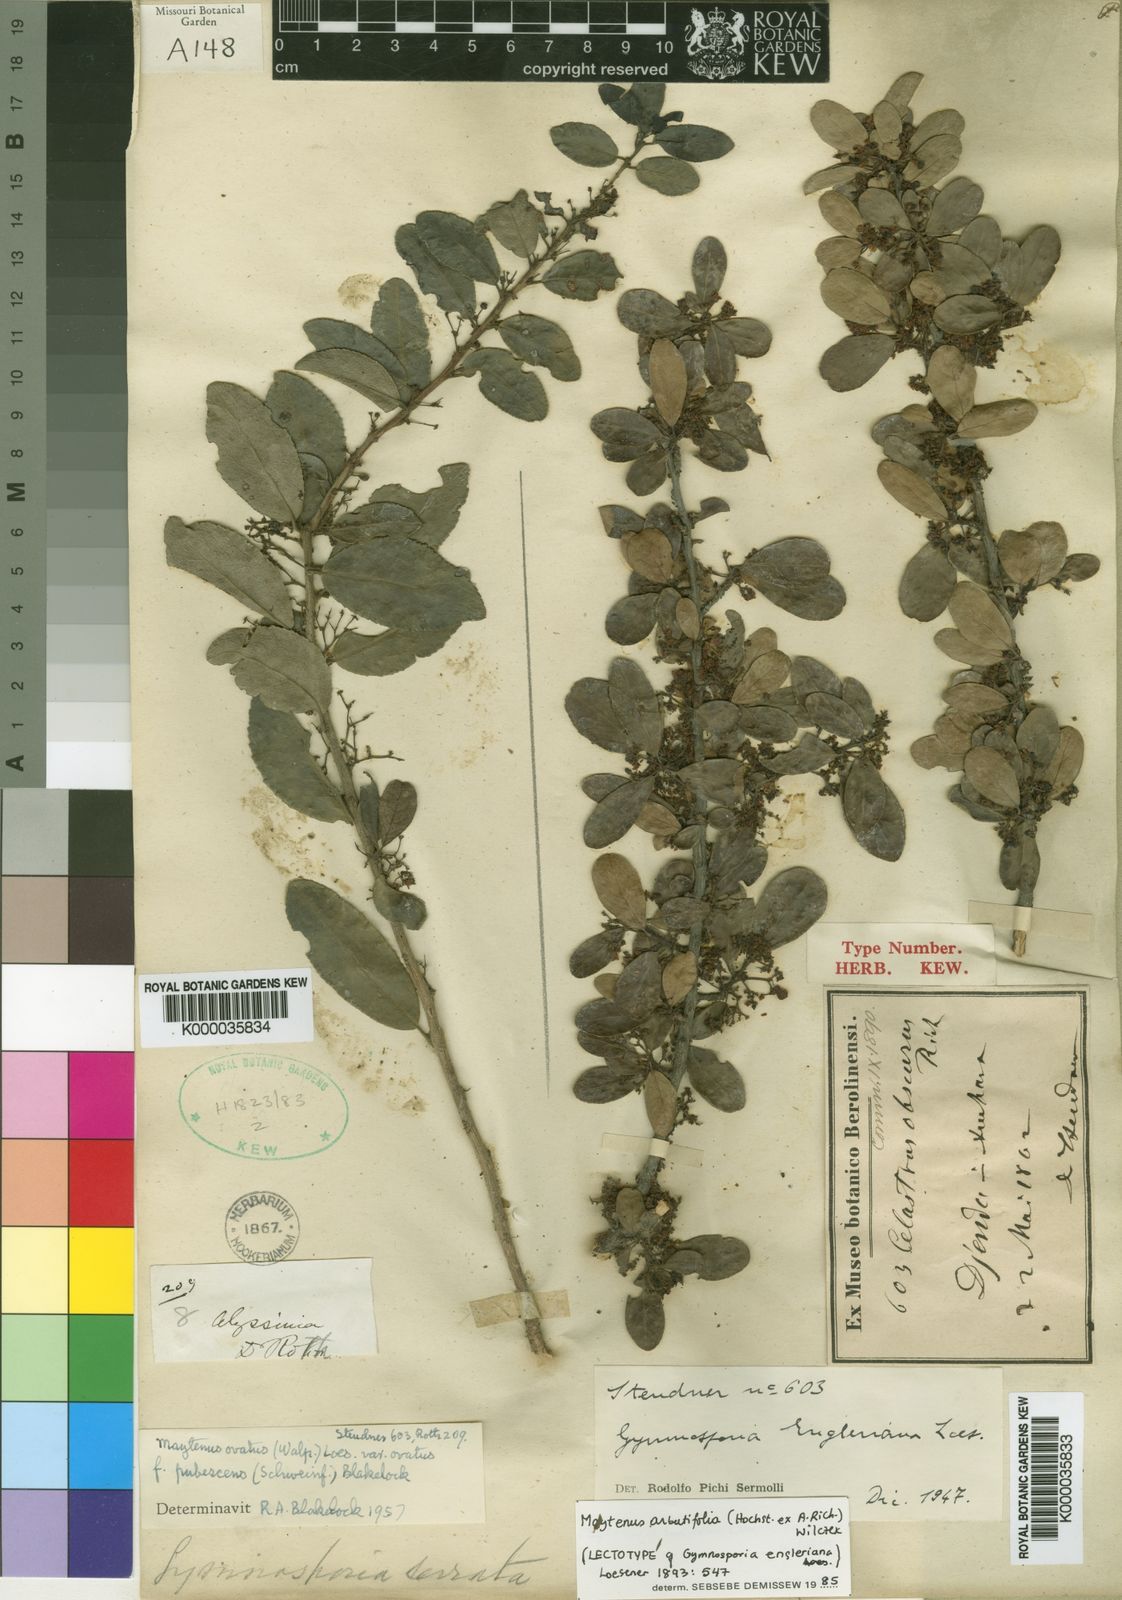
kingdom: Plantae
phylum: Tracheophyta
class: Magnoliopsida
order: Celastrales
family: Celastraceae
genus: Gymnosporia
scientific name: Gymnosporia arbutifolia
